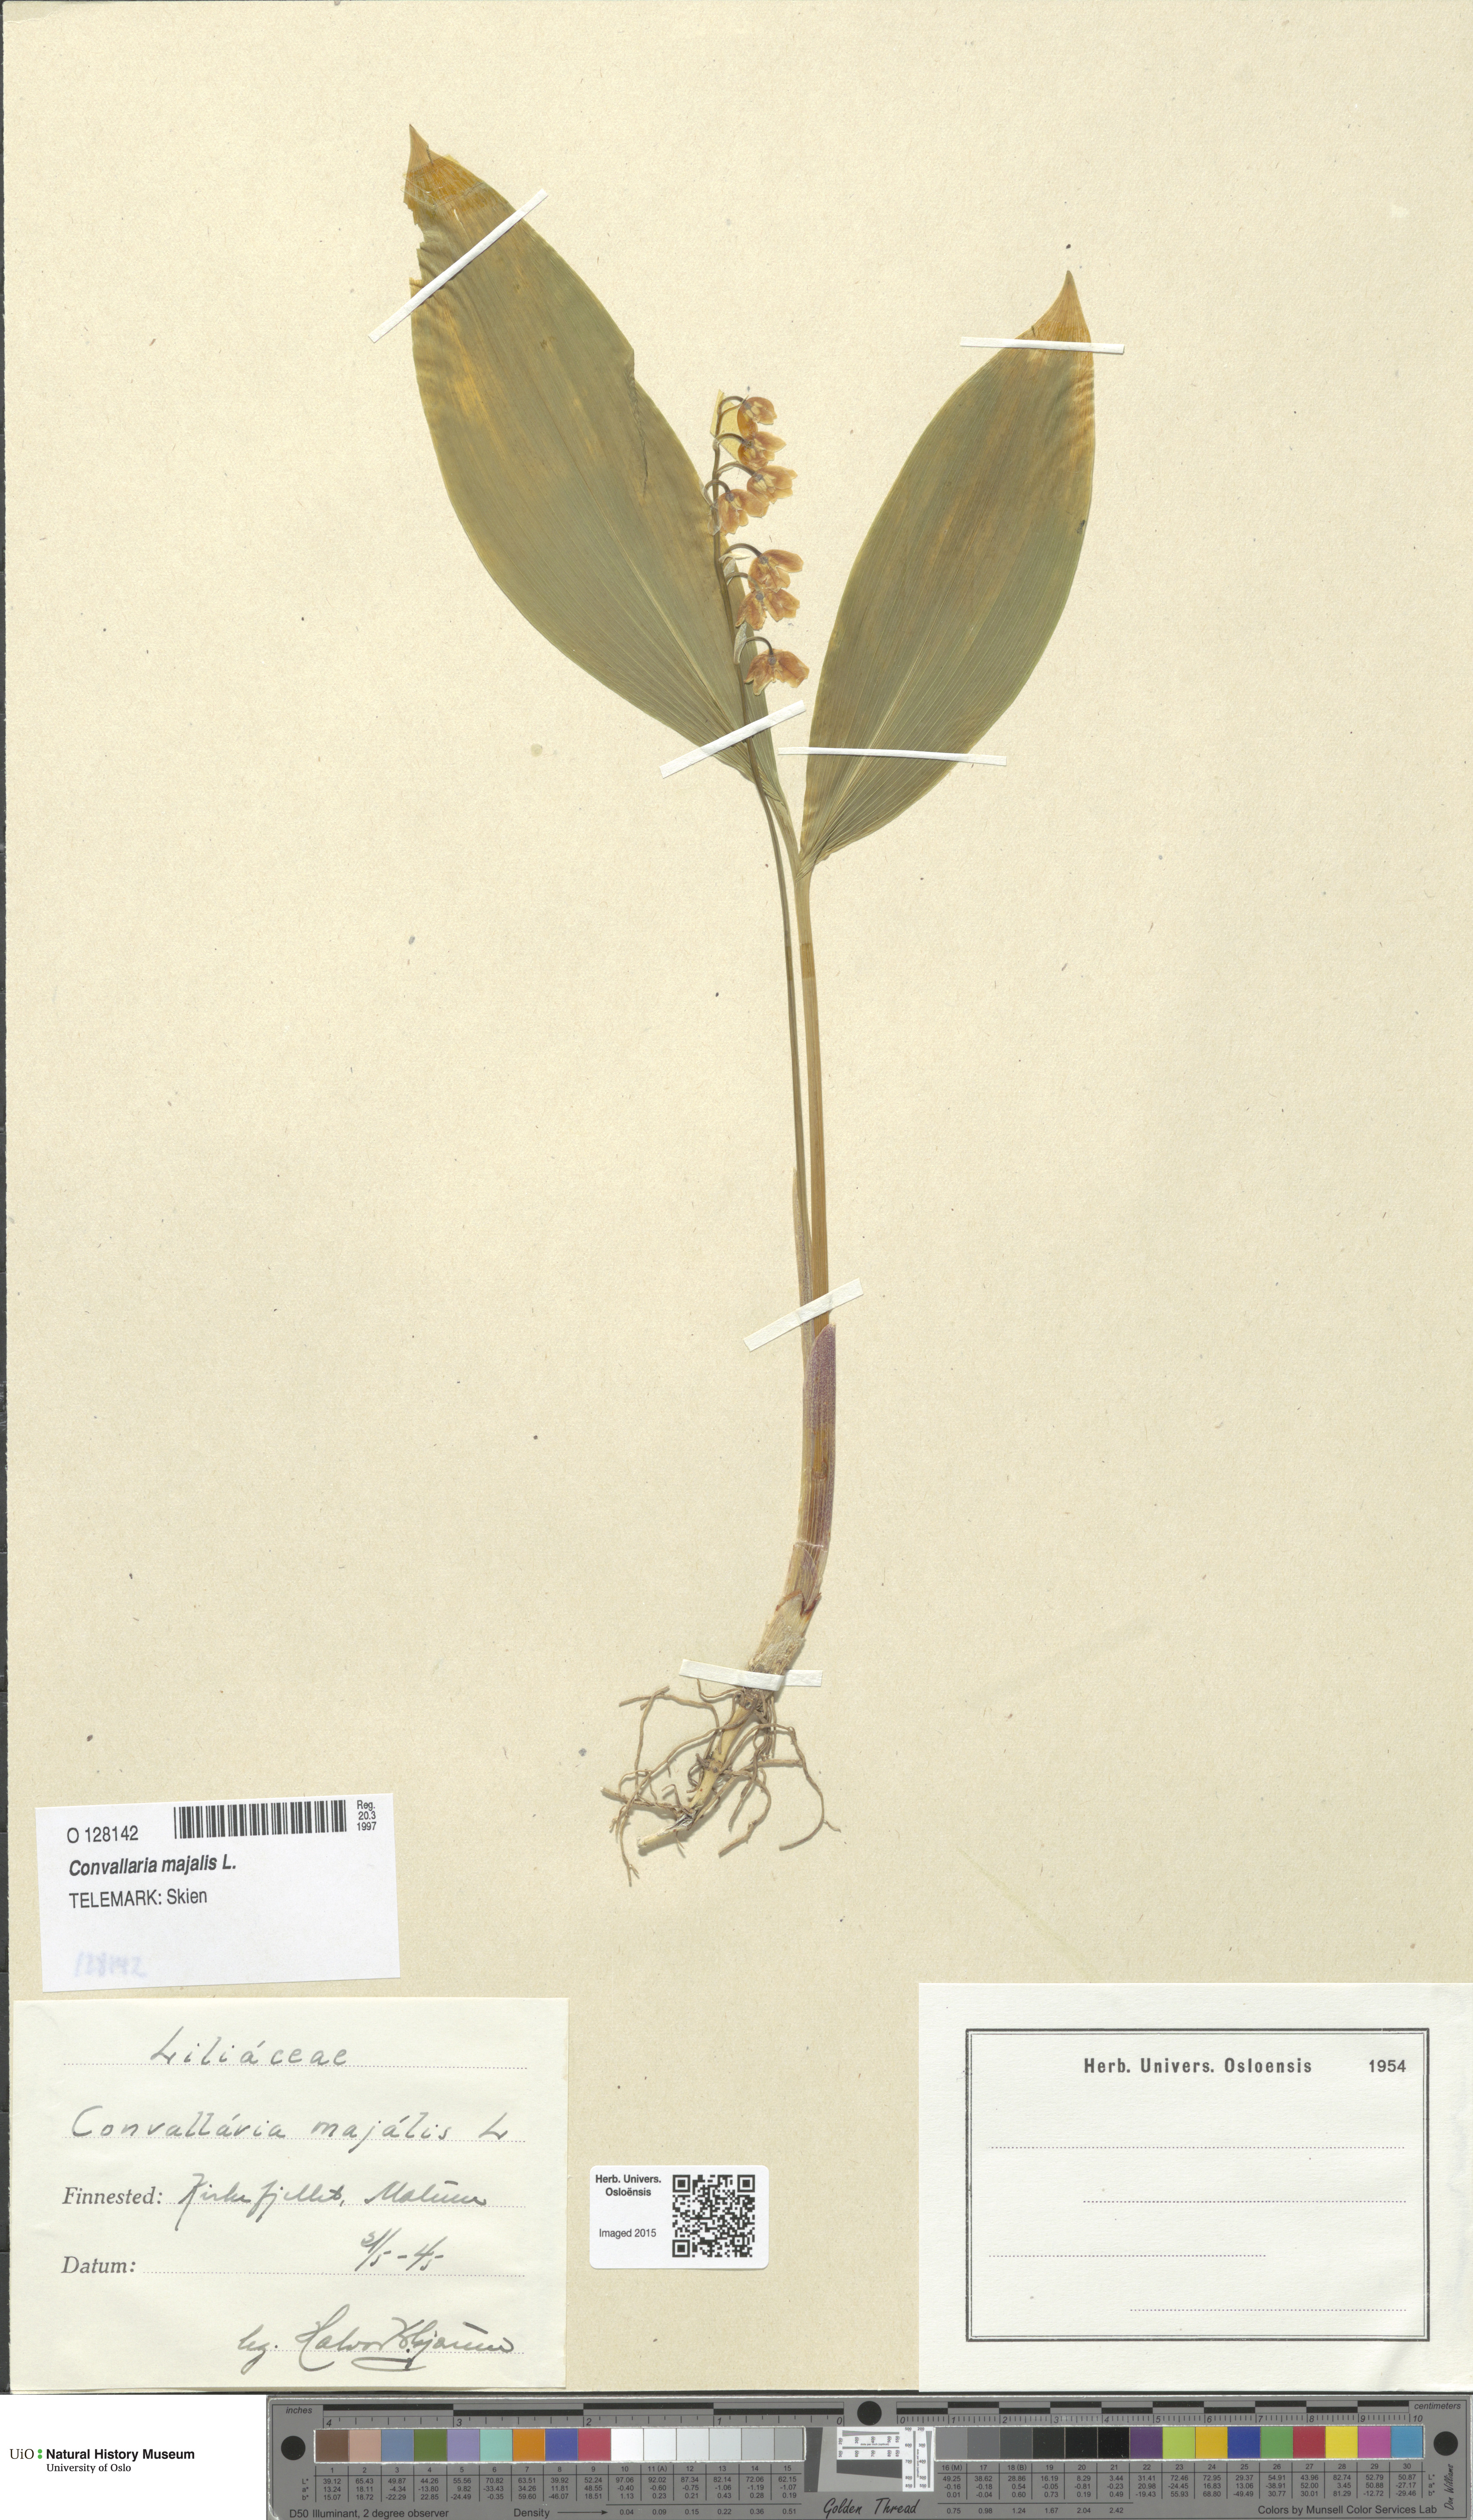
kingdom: Plantae
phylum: Tracheophyta
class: Liliopsida
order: Asparagales
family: Asparagaceae
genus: Convallaria
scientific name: Convallaria majalis
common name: Lily-of-the-valley
